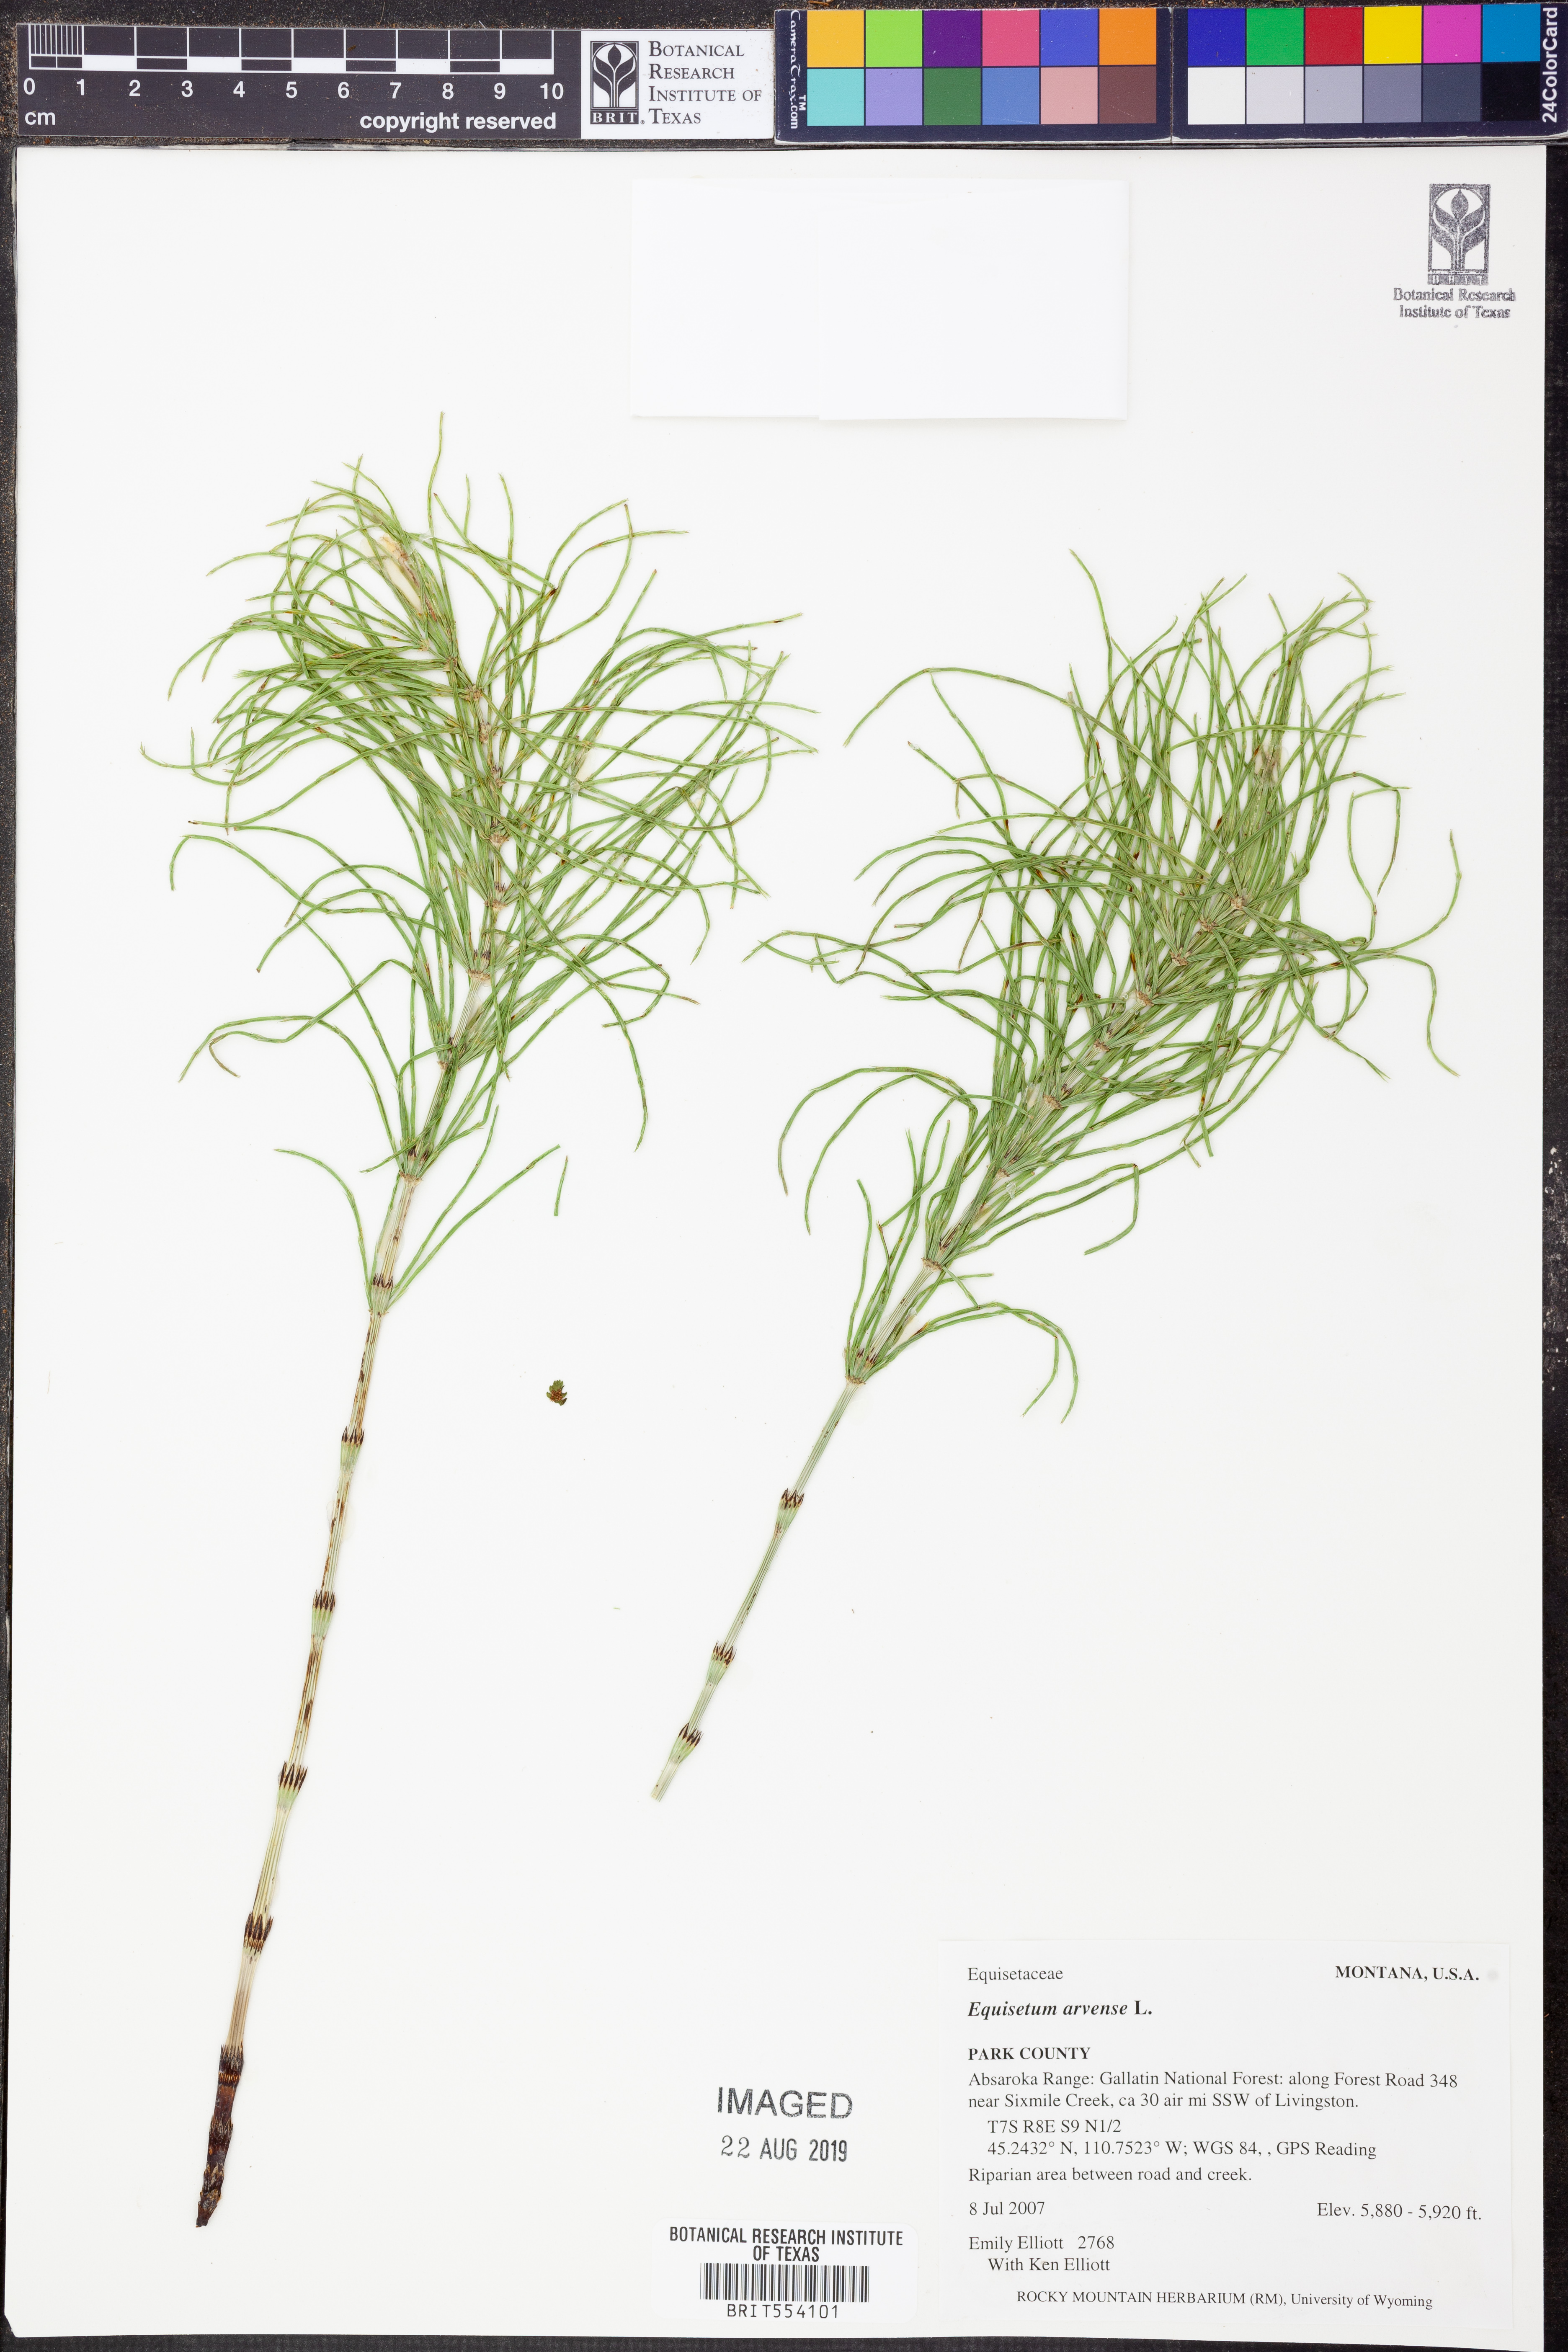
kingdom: Plantae
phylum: Tracheophyta
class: Polypodiopsida
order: Equisetales
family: Equisetaceae
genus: Equisetum
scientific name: Equisetum arvense
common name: Field horsetail
